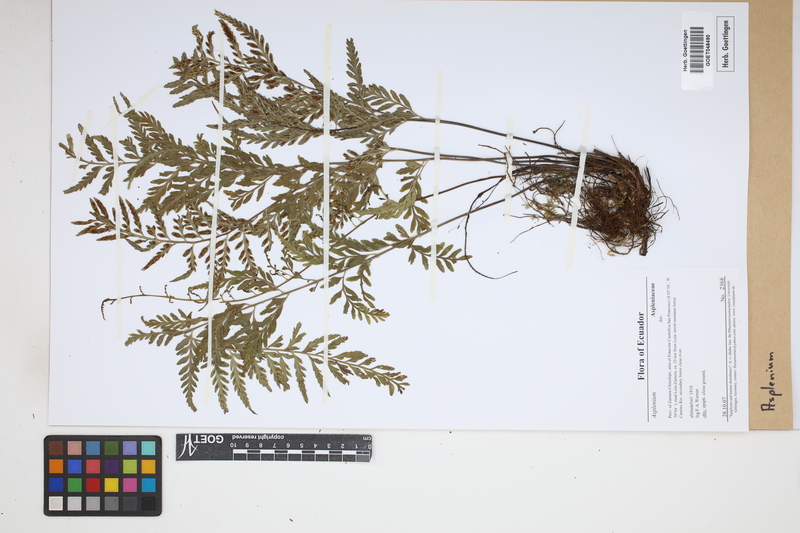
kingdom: Plantae
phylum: Tracheophyta
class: Polypodiopsida
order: Polypodiales
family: Aspleniaceae
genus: Asplenium
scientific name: Asplenium
